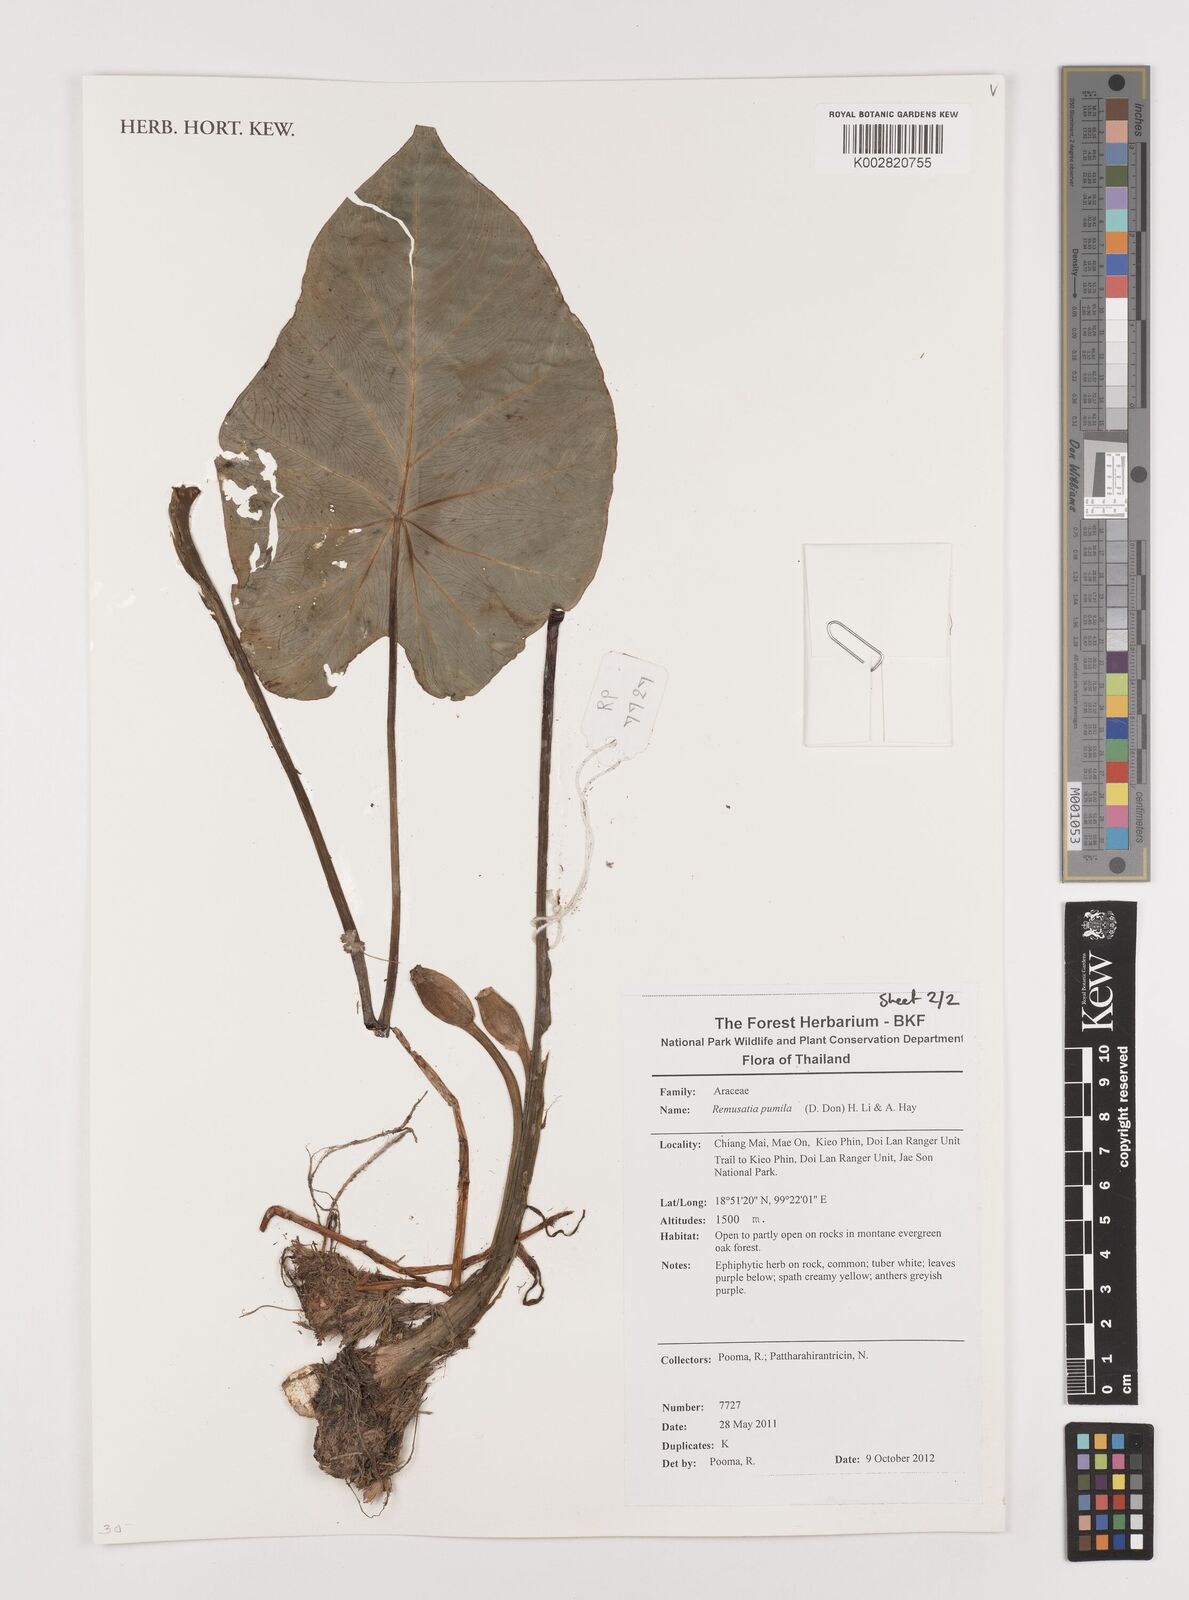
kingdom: Plantae
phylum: Tracheophyta
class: Liliopsida
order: Alismatales
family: Araceae
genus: Remusatia
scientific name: Remusatia pumila
